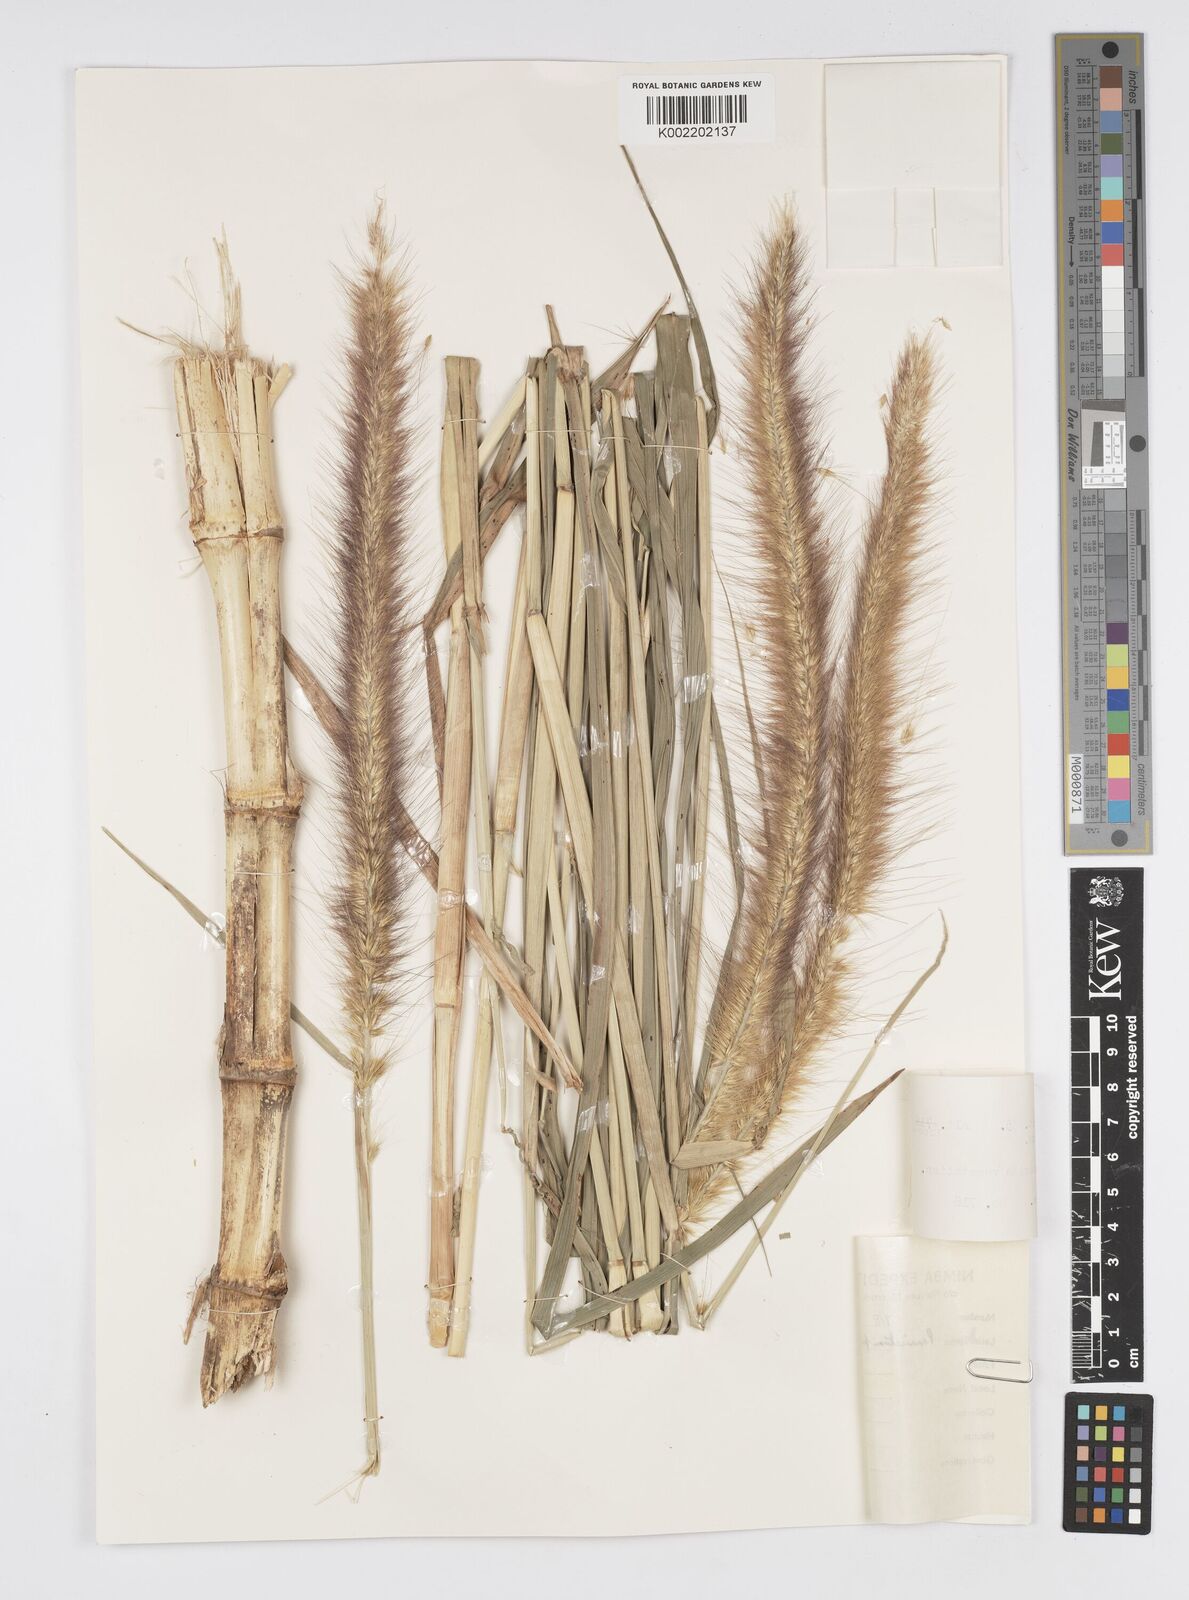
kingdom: Plantae
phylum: Tracheophyta
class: Liliopsida
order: Poales
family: Poaceae
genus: Cenchrus
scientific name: Cenchrus purpureus
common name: Elephant grass
